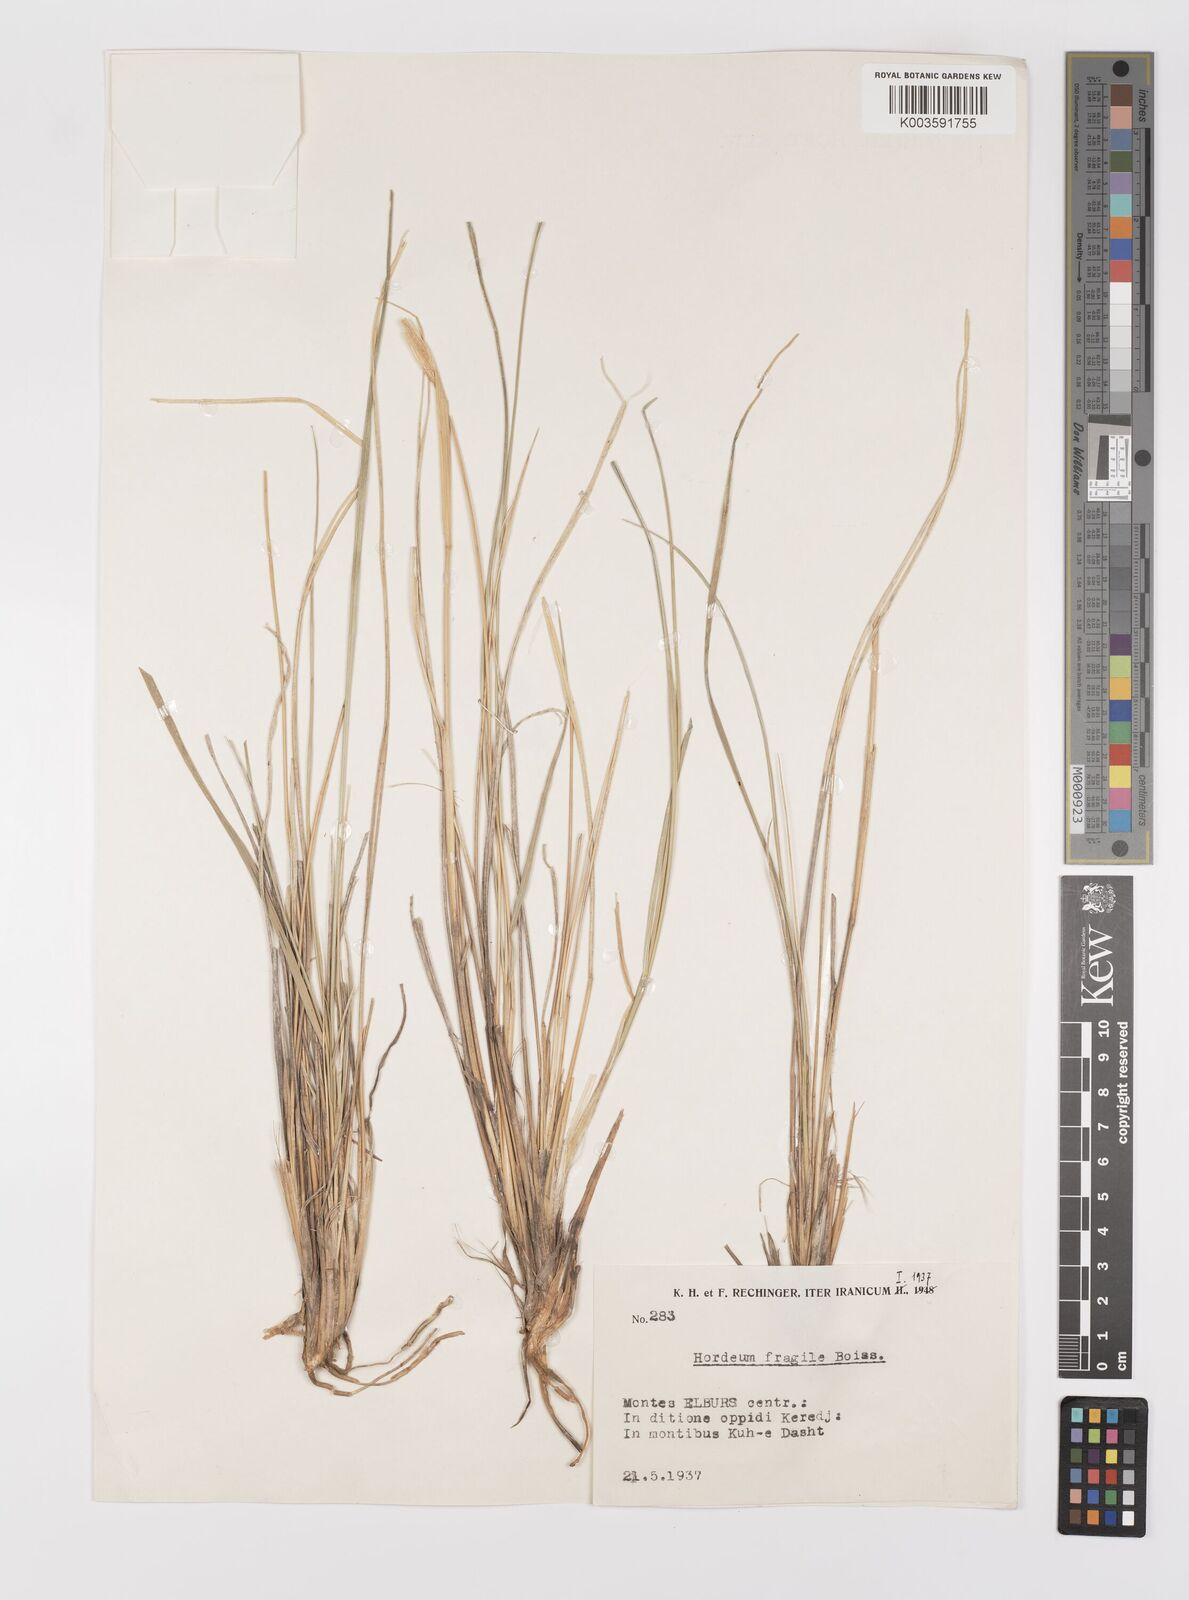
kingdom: Plantae
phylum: Tracheophyta
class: Liliopsida
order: Poales
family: Poaceae
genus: Psathyrostachys
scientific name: Psathyrostachys fragilis
